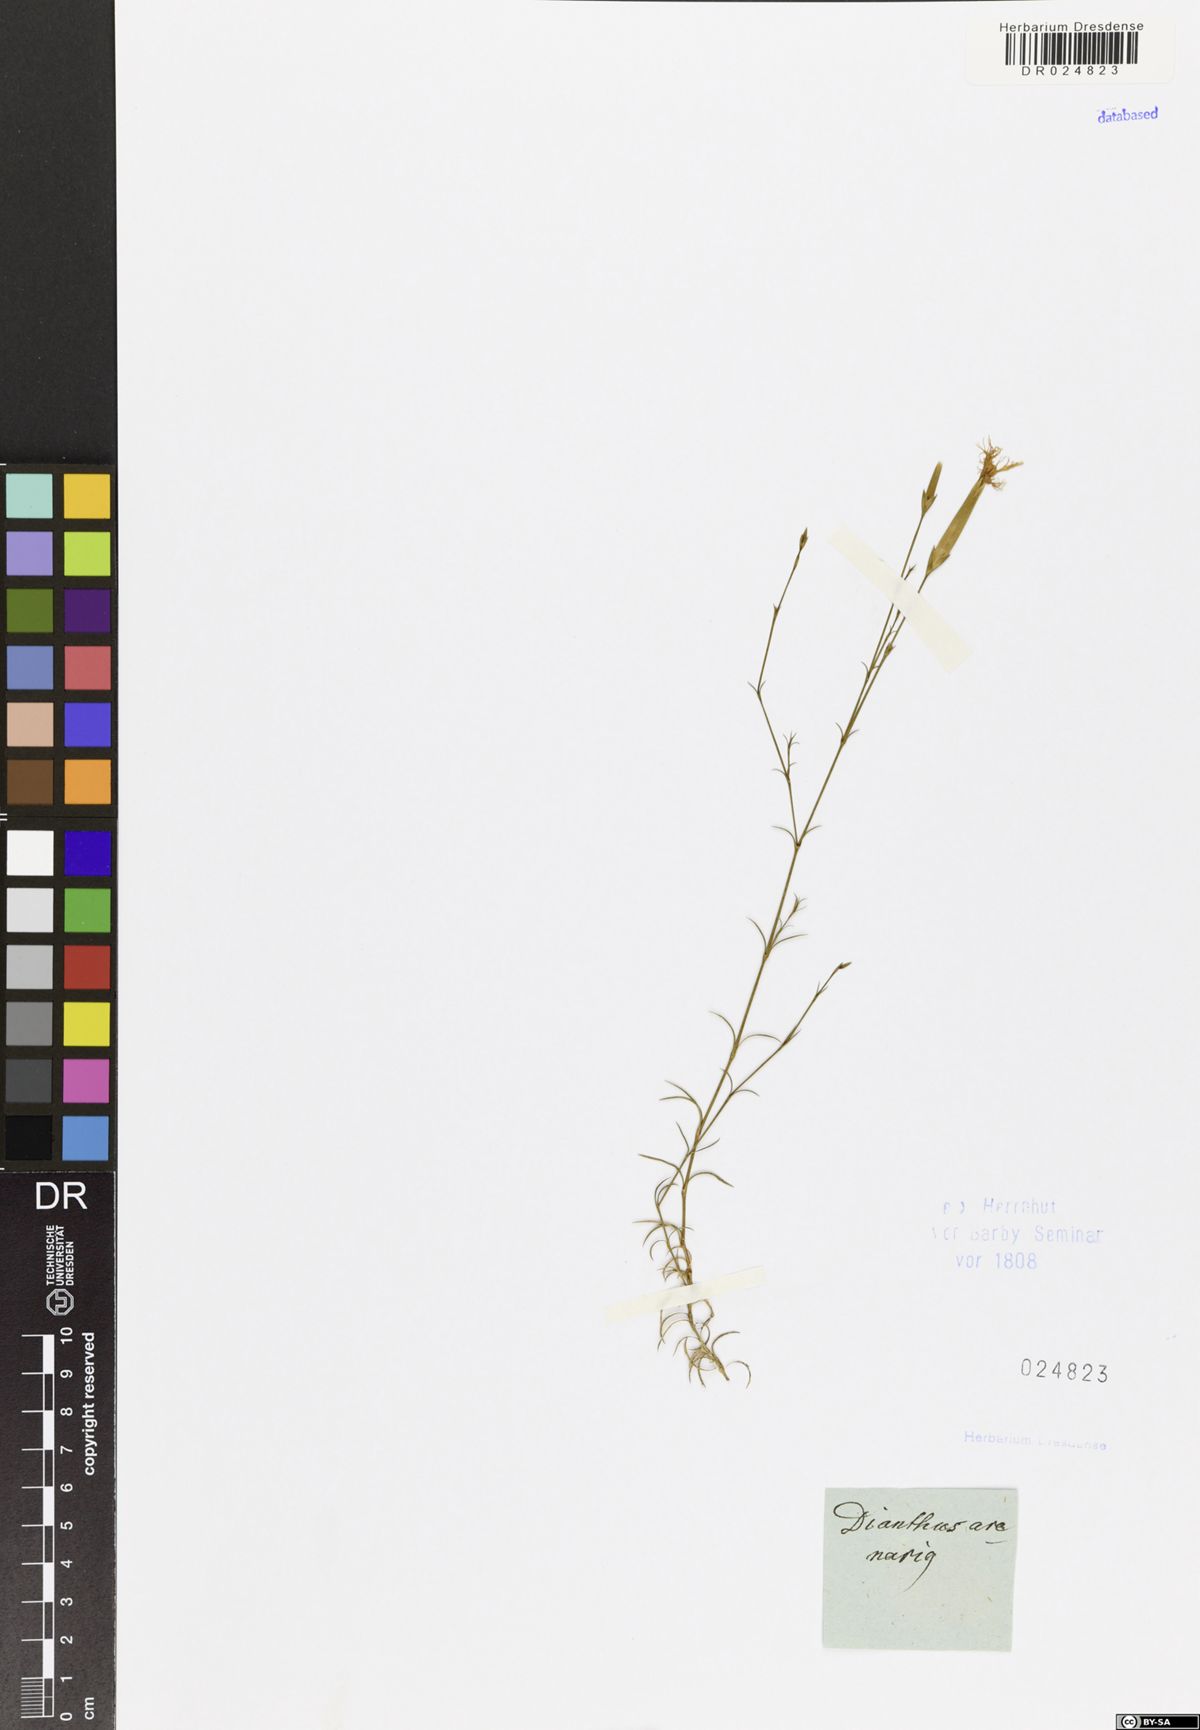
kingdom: Plantae
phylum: Tracheophyta
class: Magnoliopsida
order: Caryophyllales
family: Caryophyllaceae
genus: Dianthus
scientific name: Dianthus squarrosus
